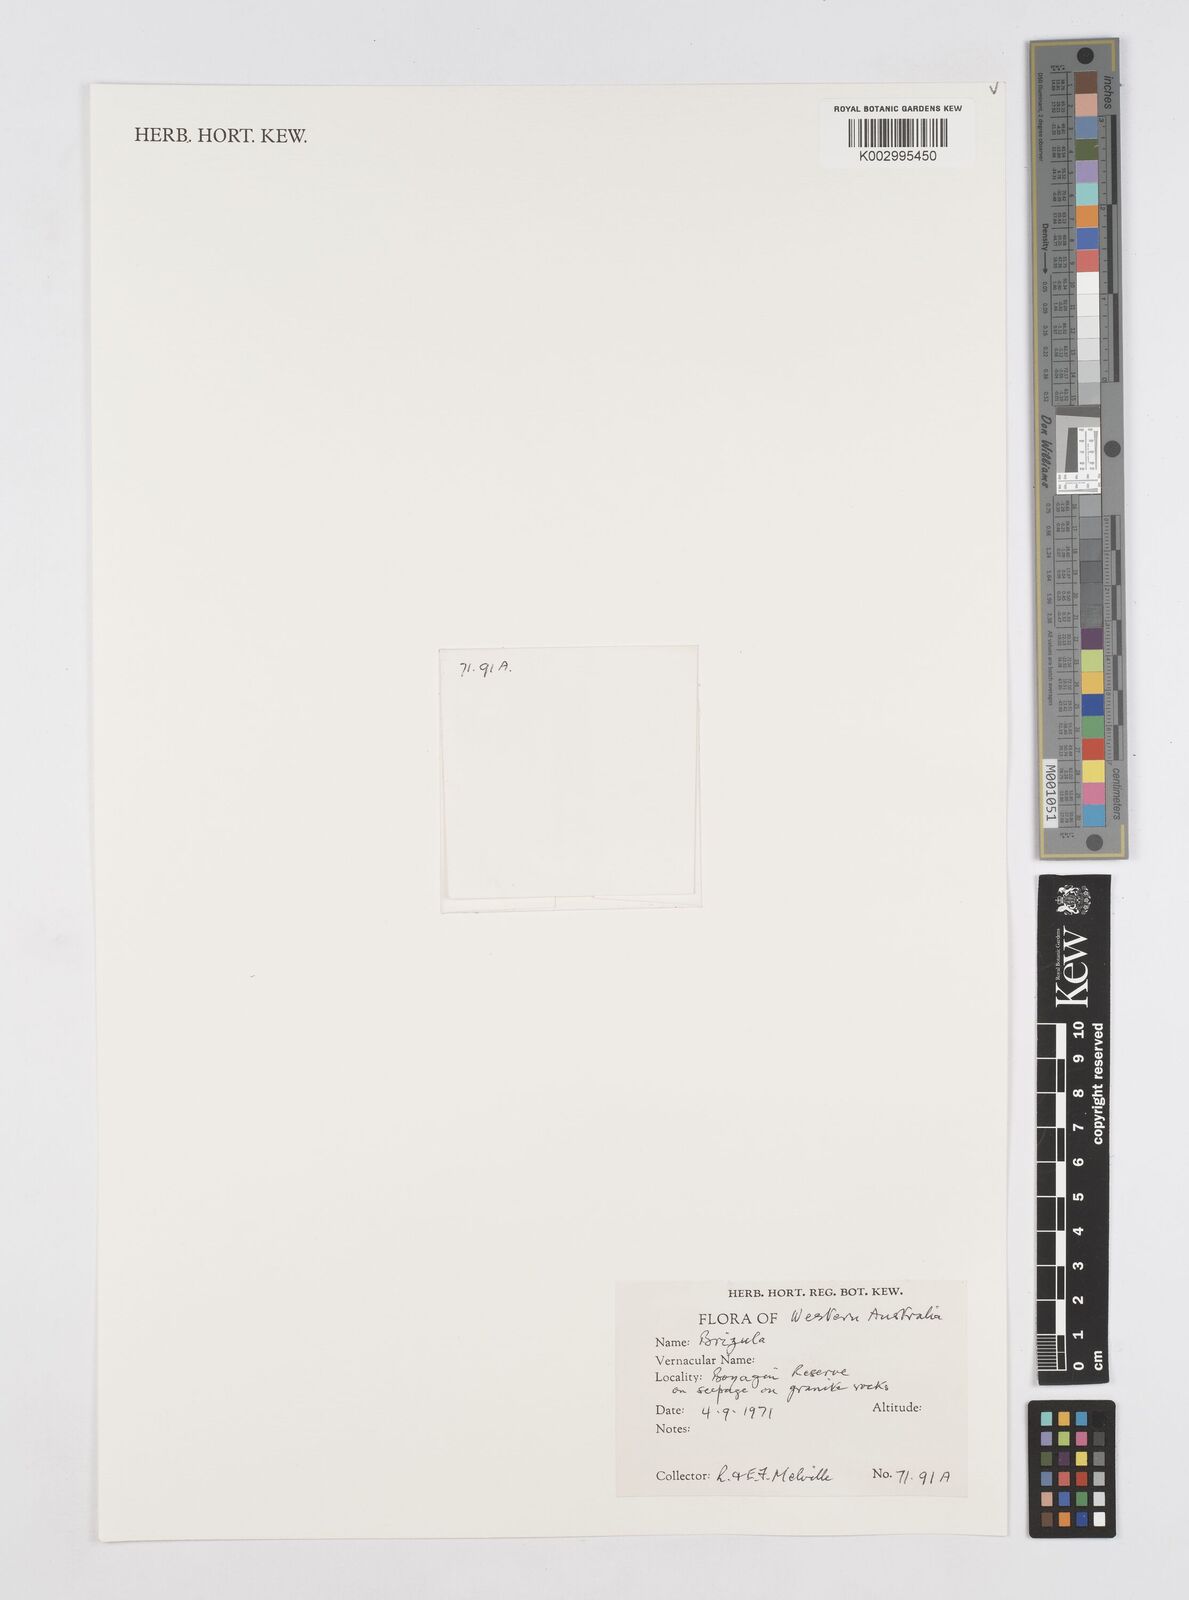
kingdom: Plantae
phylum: Tracheophyta
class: Liliopsida
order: Poales
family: Restionaceae
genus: Aphelia
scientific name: Aphelia
